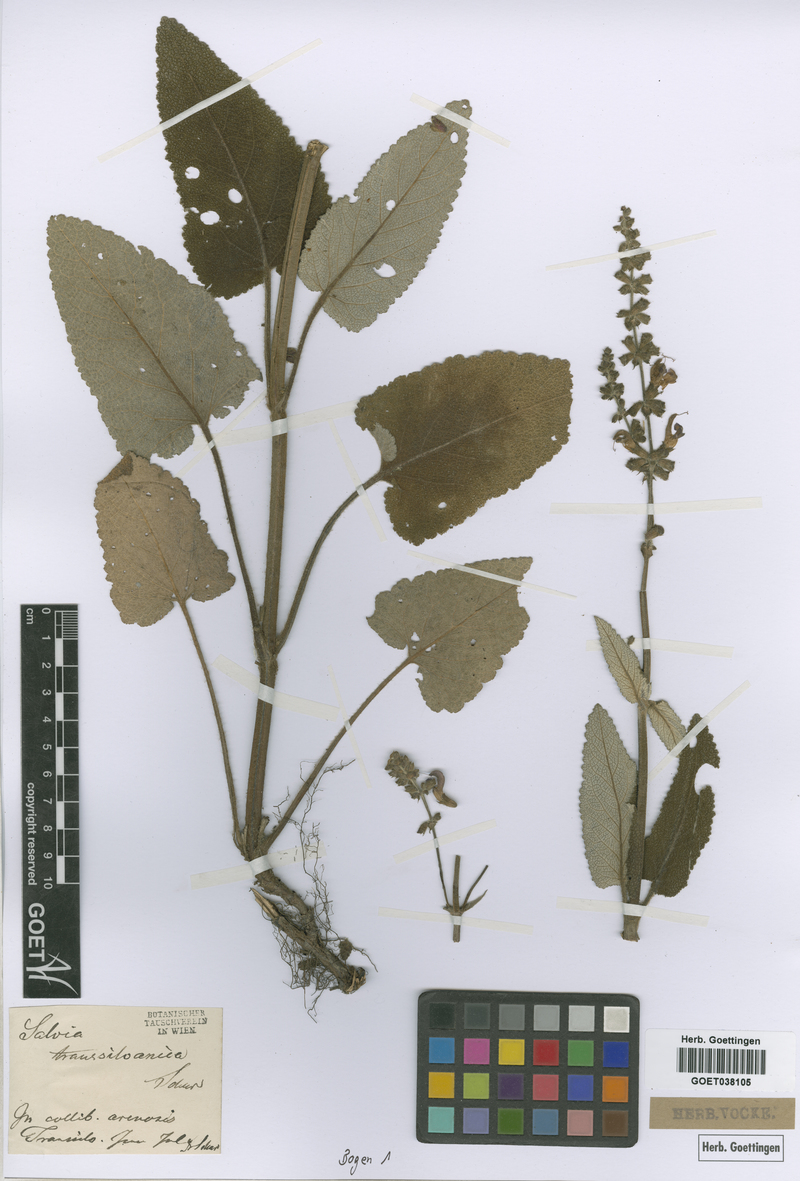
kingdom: Plantae
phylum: Tracheophyta
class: Magnoliopsida
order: Lamiales
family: Lamiaceae
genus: Salvia
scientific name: Salvia transsylvanica
